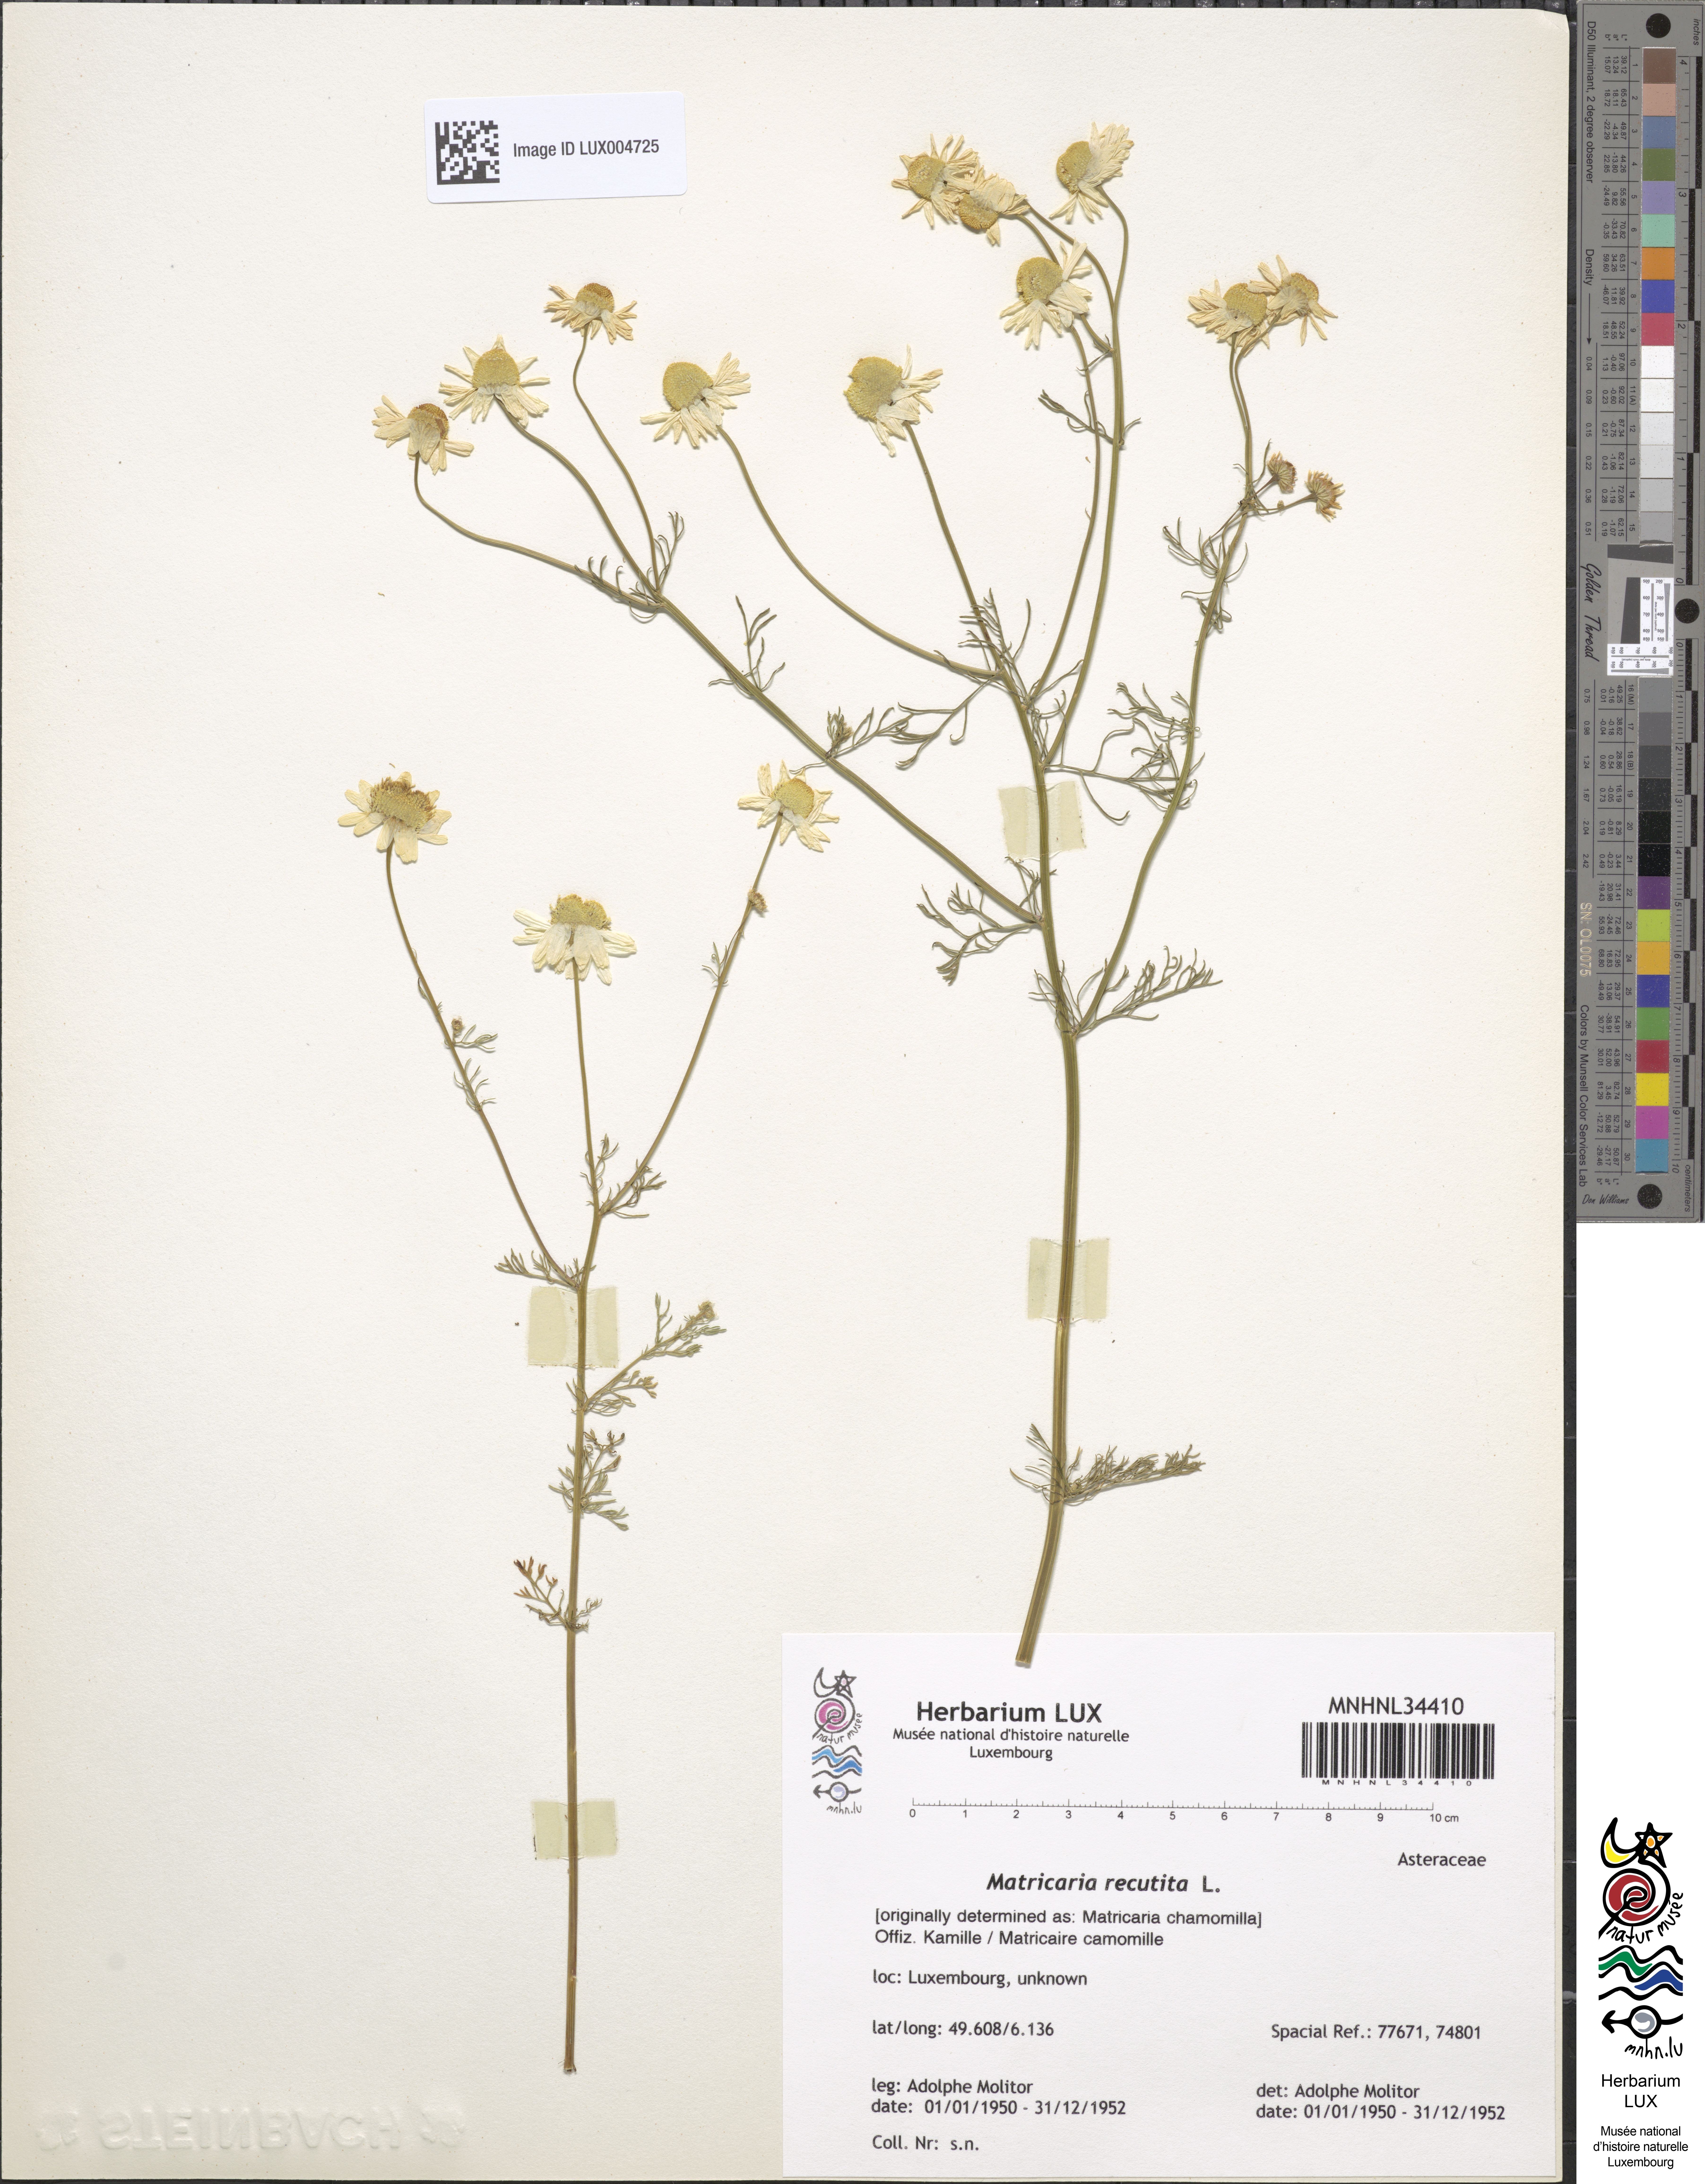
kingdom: Plantae
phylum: Tracheophyta
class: Magnoliopsida
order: Asterales
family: Asteraceae
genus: Matricaria
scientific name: Matricaria chamomilla
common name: Scented mayweed
